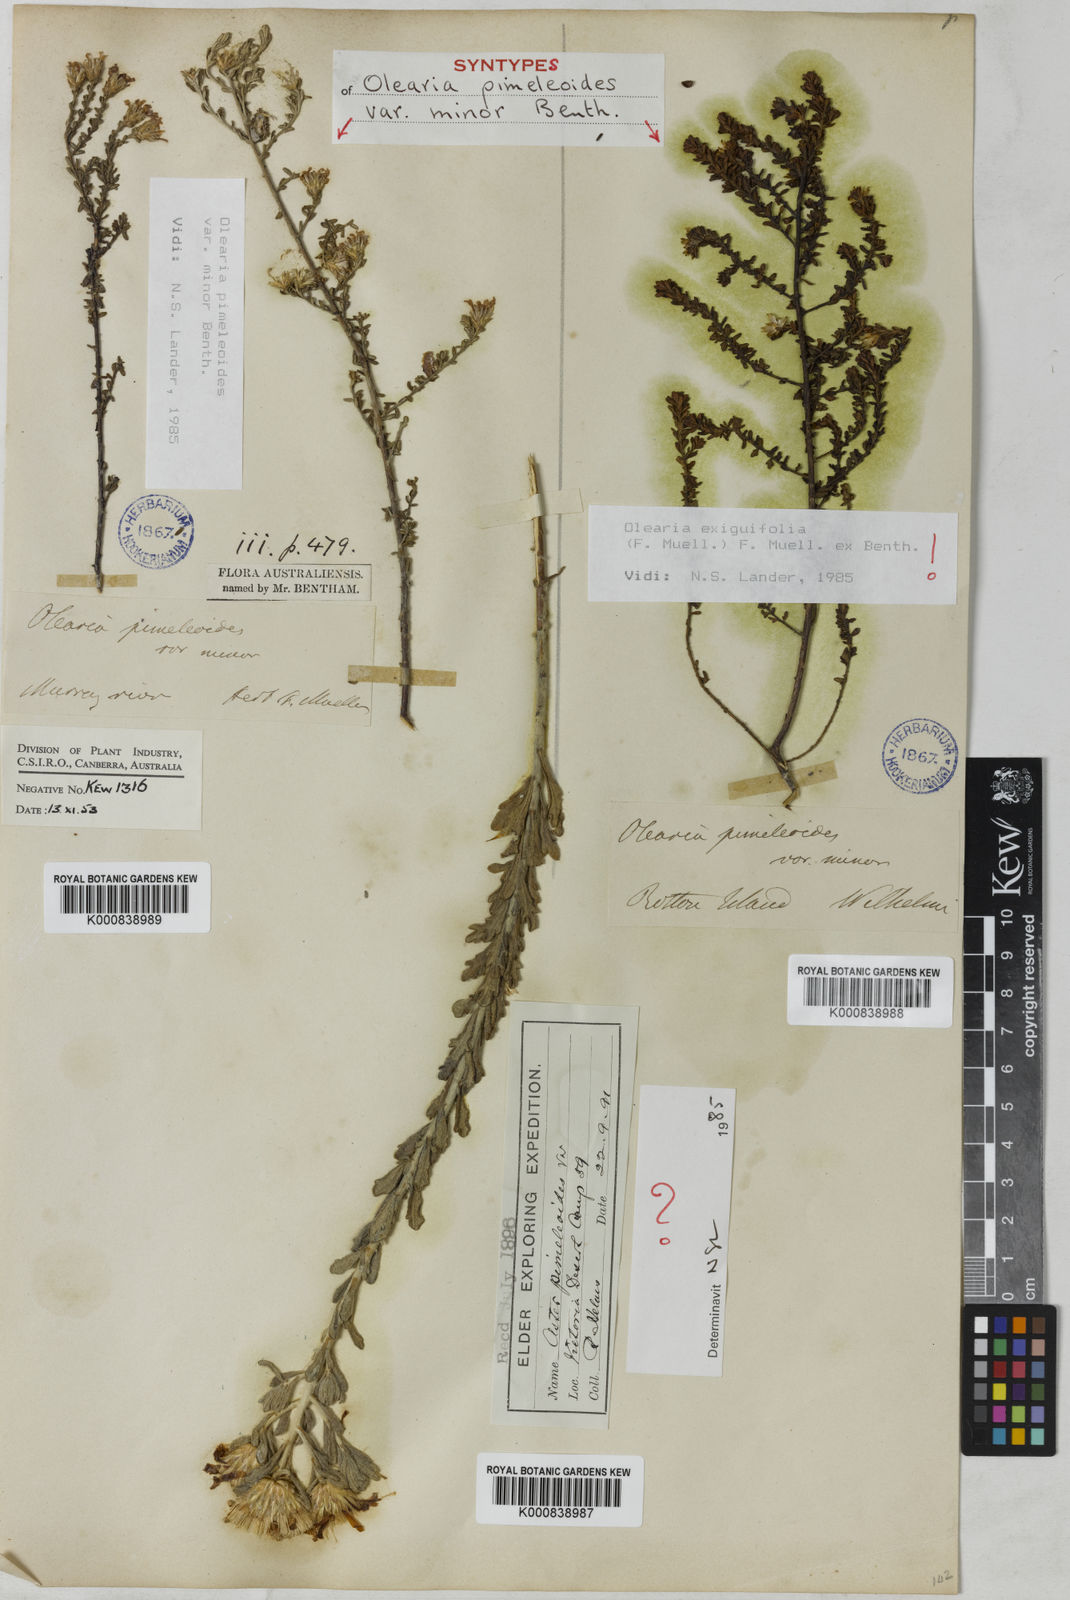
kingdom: Plantae
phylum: Tracheophyta
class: Magnoliopsida
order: Asterales
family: Asteraceae
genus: Olearia
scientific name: Olearia minor
